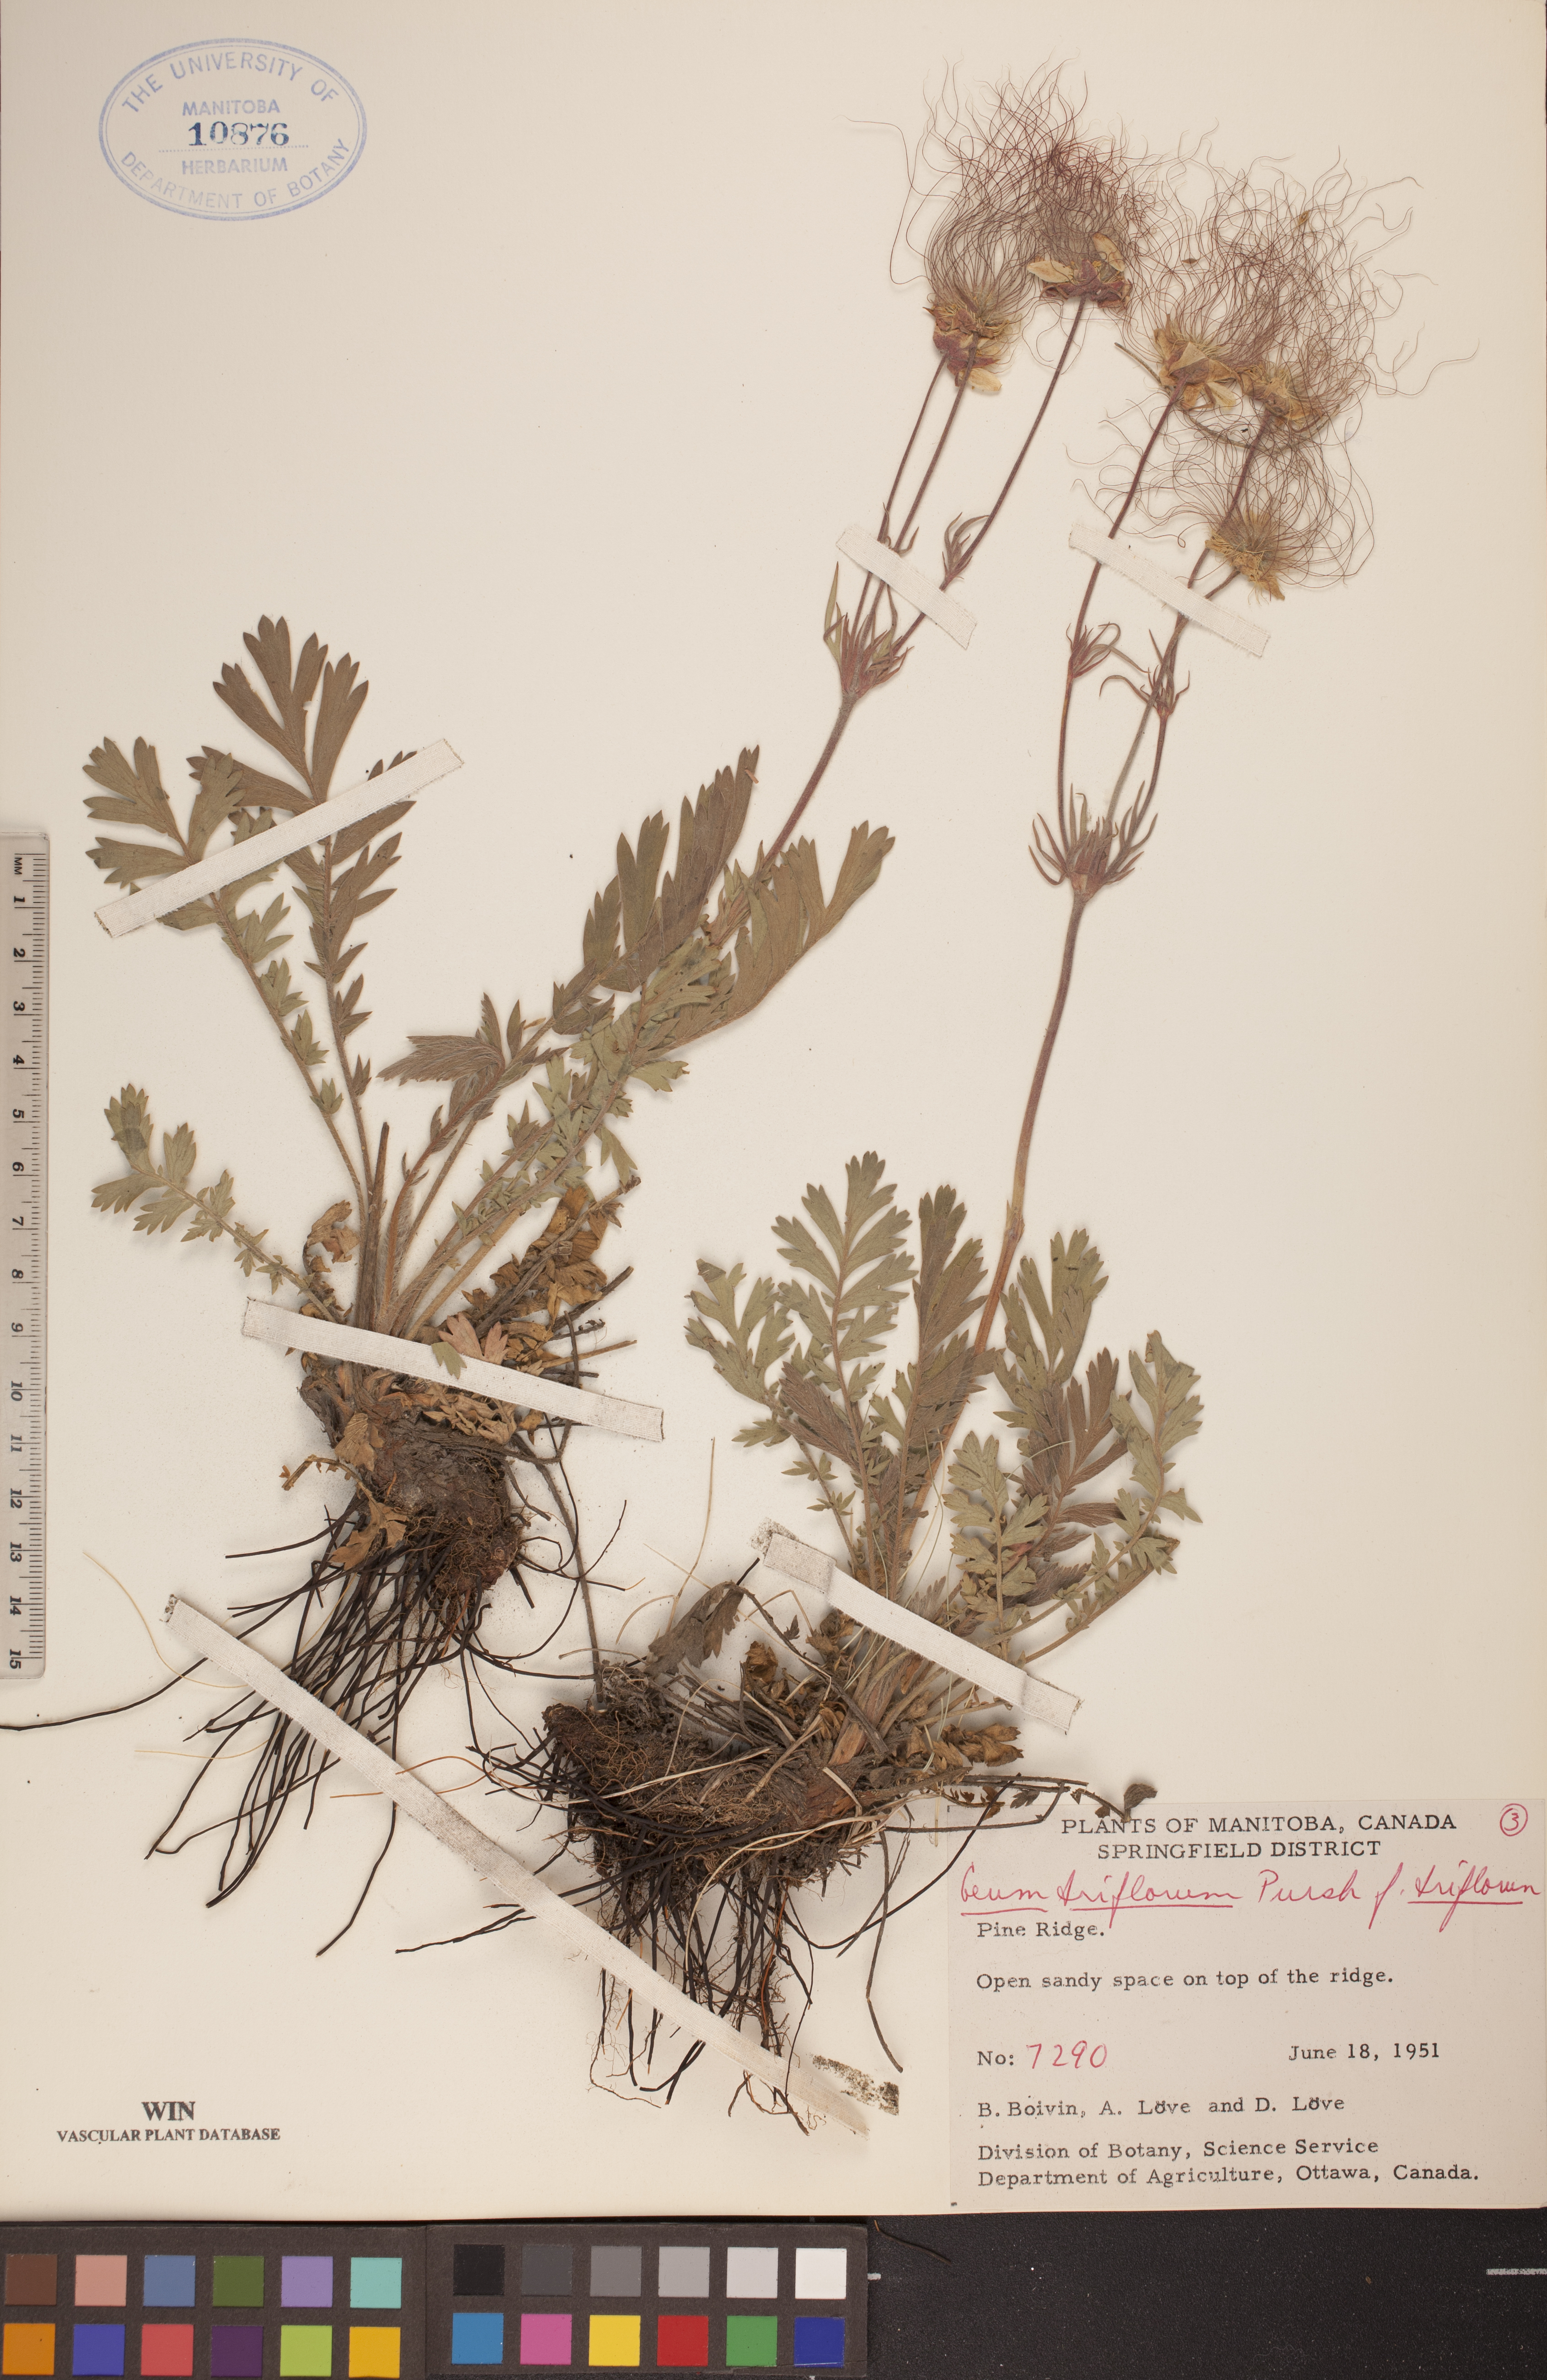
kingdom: Plantae
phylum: Tracheophyta
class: Magnoliopsida
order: Rosales
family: Rosaceae
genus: Geum
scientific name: Geum triflorum
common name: Old man's whiskers
